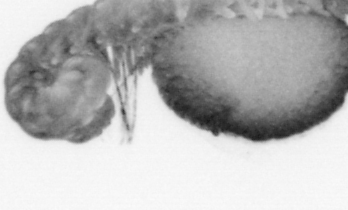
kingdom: Animalia
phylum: Annelida
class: Polychaeta
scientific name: Polychaeta
